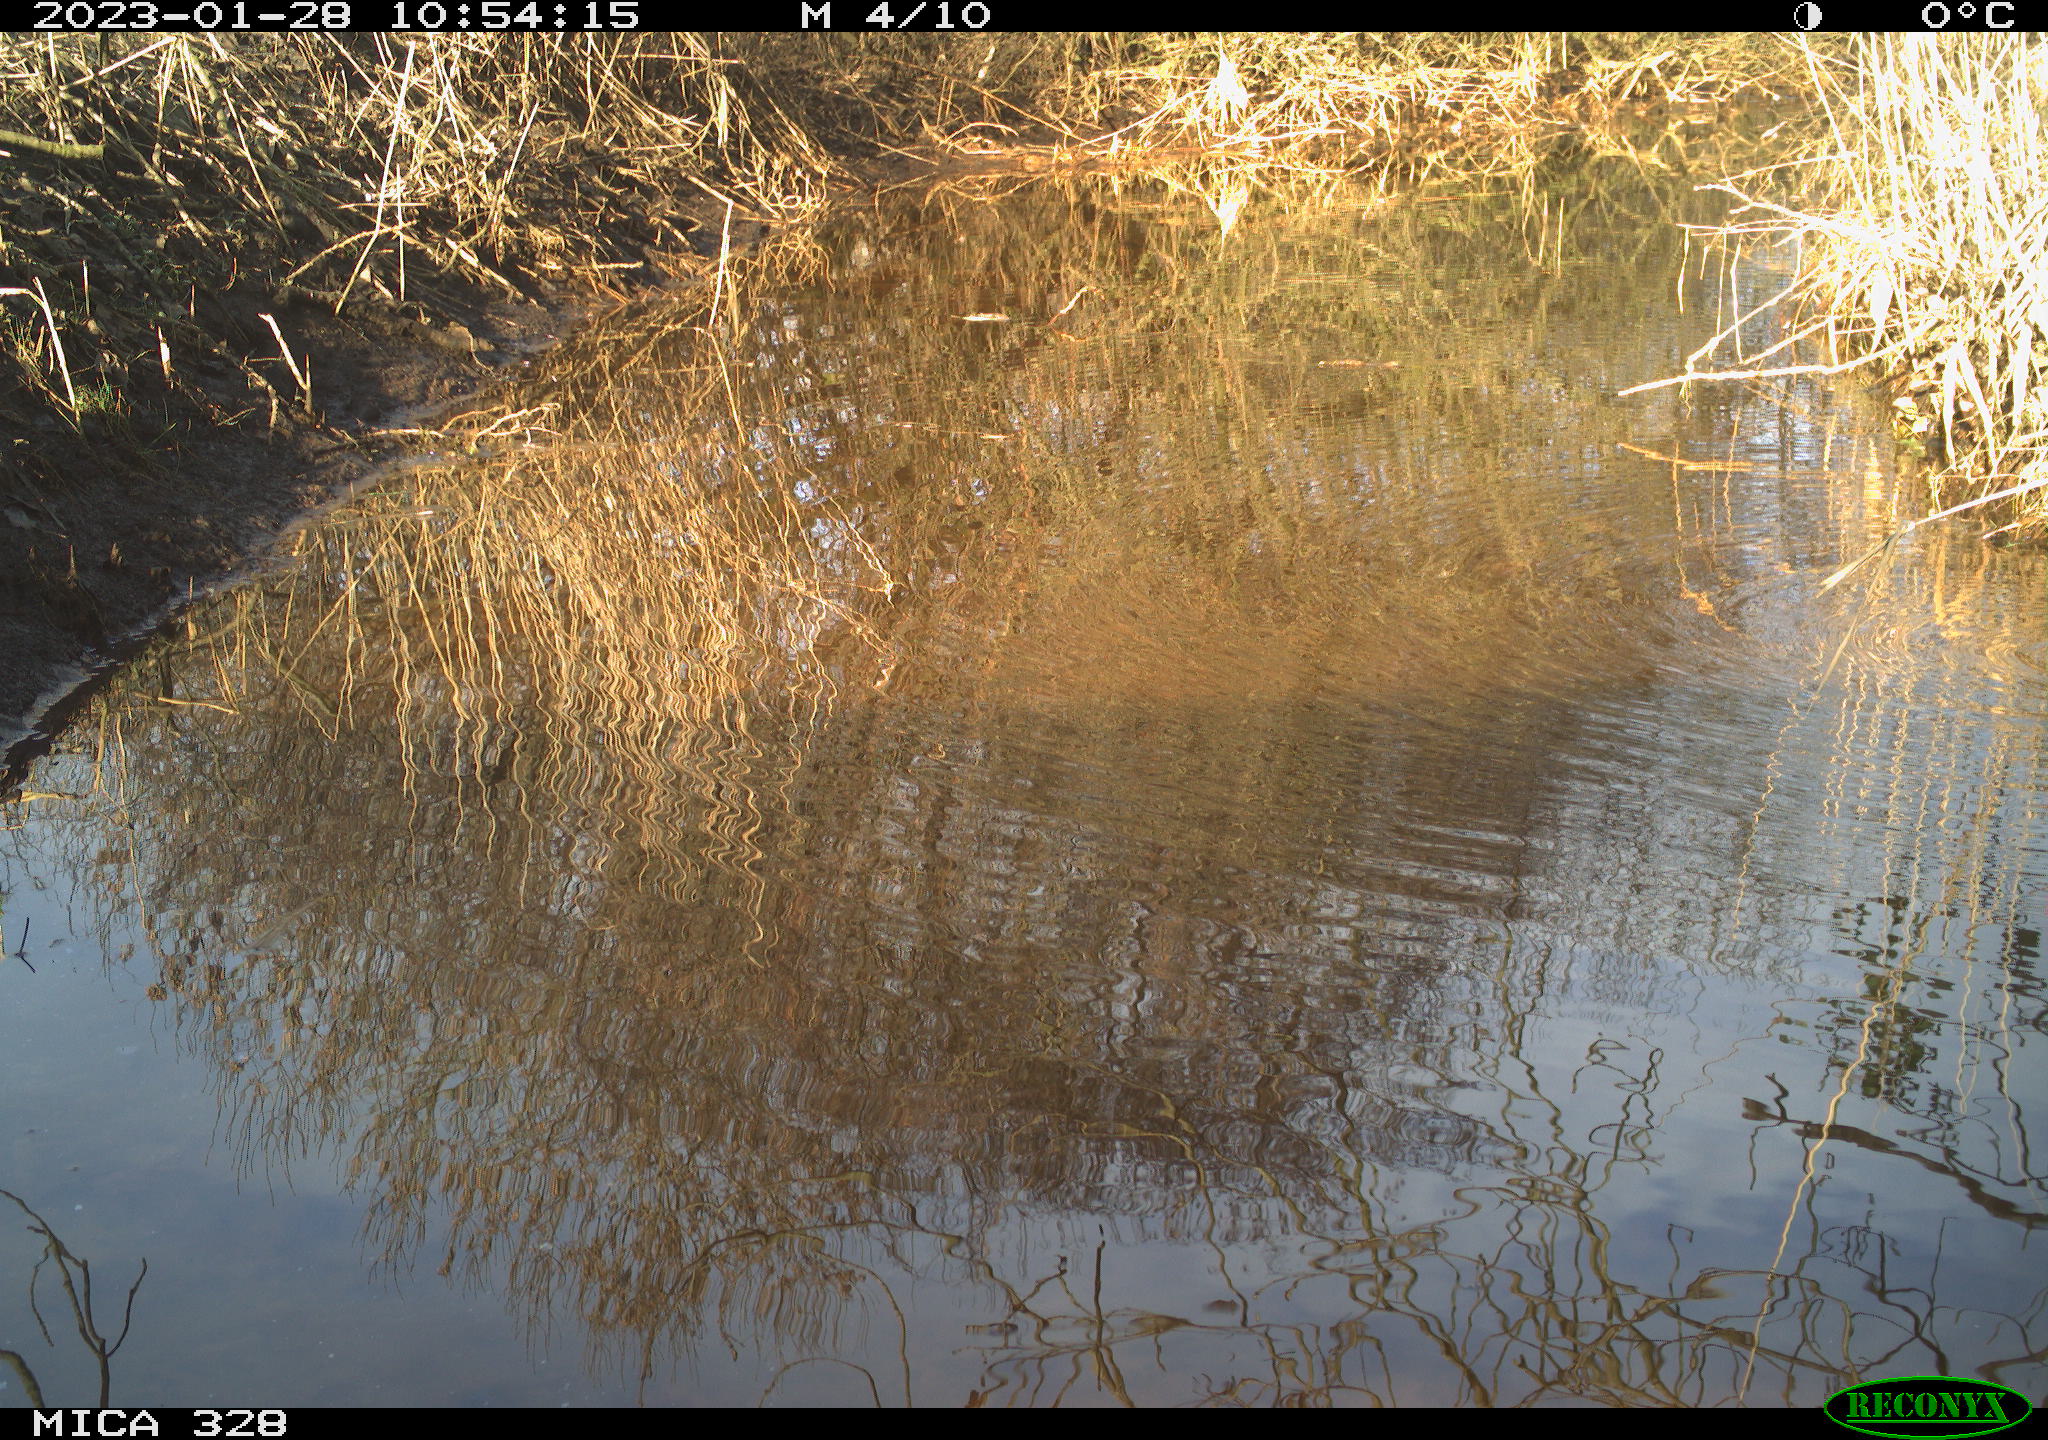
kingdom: Animalia
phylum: Chordata
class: Aves
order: Gruiformes
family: Rallidae
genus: Gallinula
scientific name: Gallinula chloropus
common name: Common moorhen
